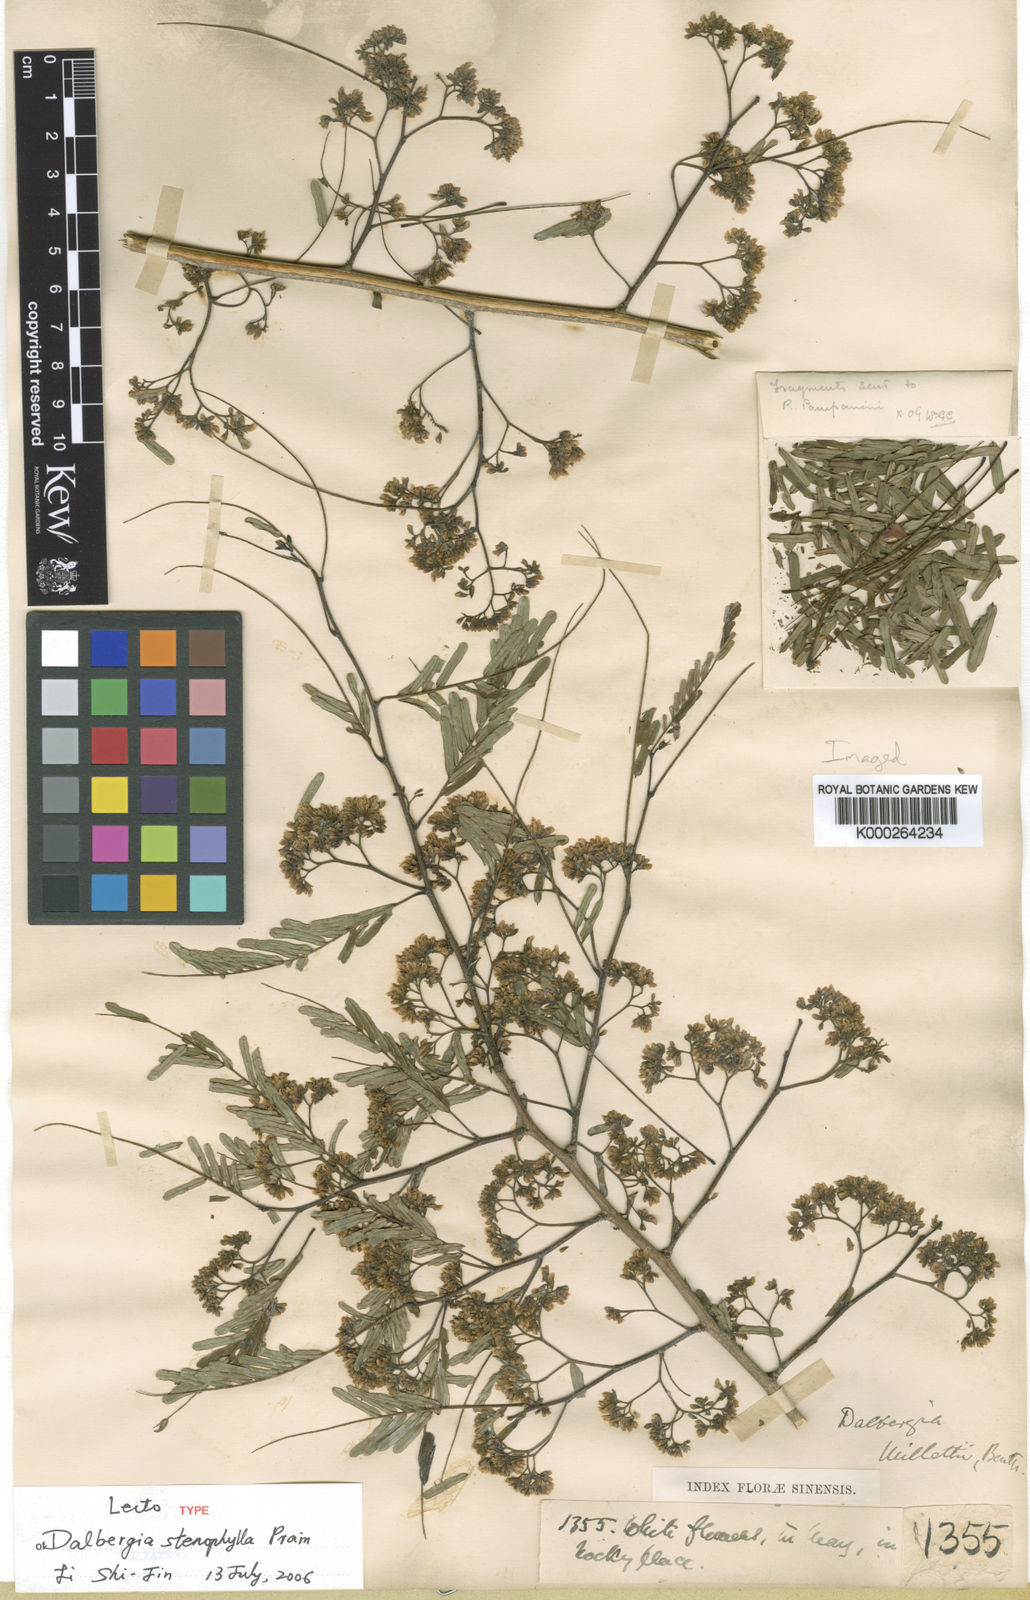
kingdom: Plantae
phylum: Tracheophyta
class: Magnoliopsida
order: Fabales
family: Fabaceae
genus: Dalbergia
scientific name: Dalbergia stenophylla
